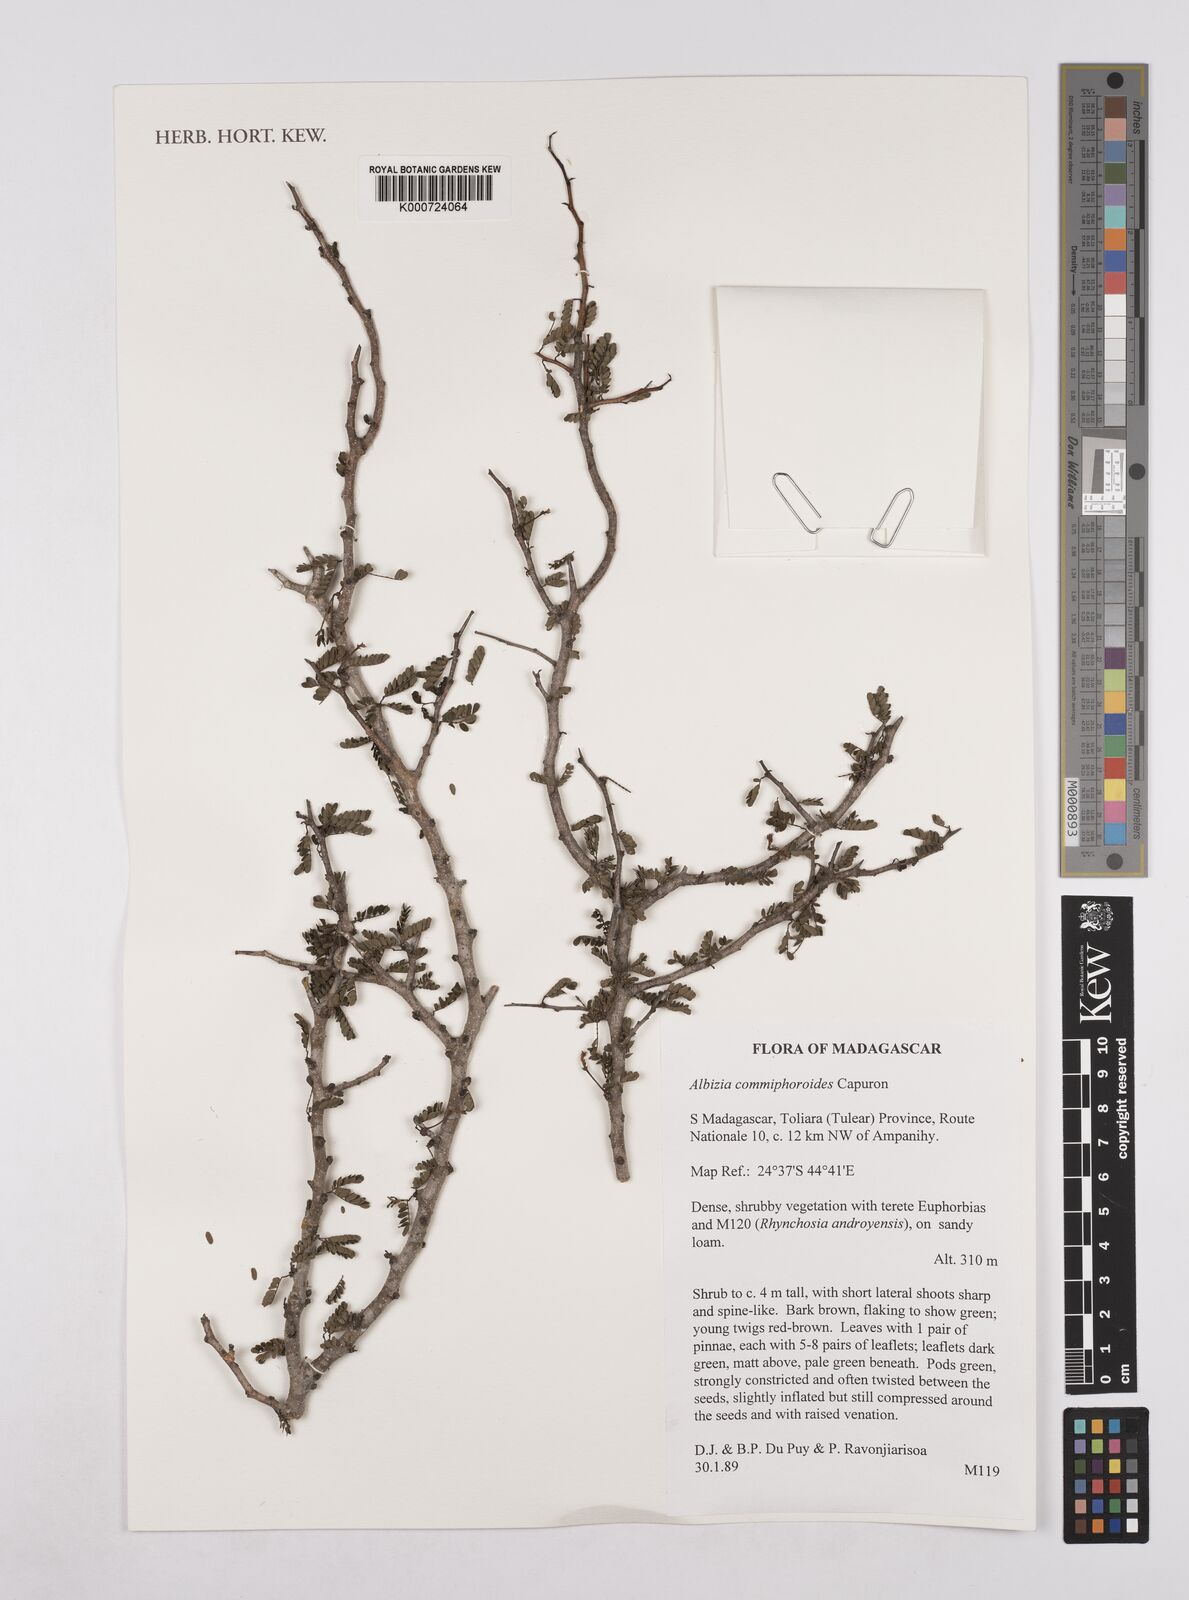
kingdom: Plantae
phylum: Tracheophyta
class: Magnoliopsida
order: Fabales
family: Fabaceae
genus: Albizia
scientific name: Albizia commiphoroides
